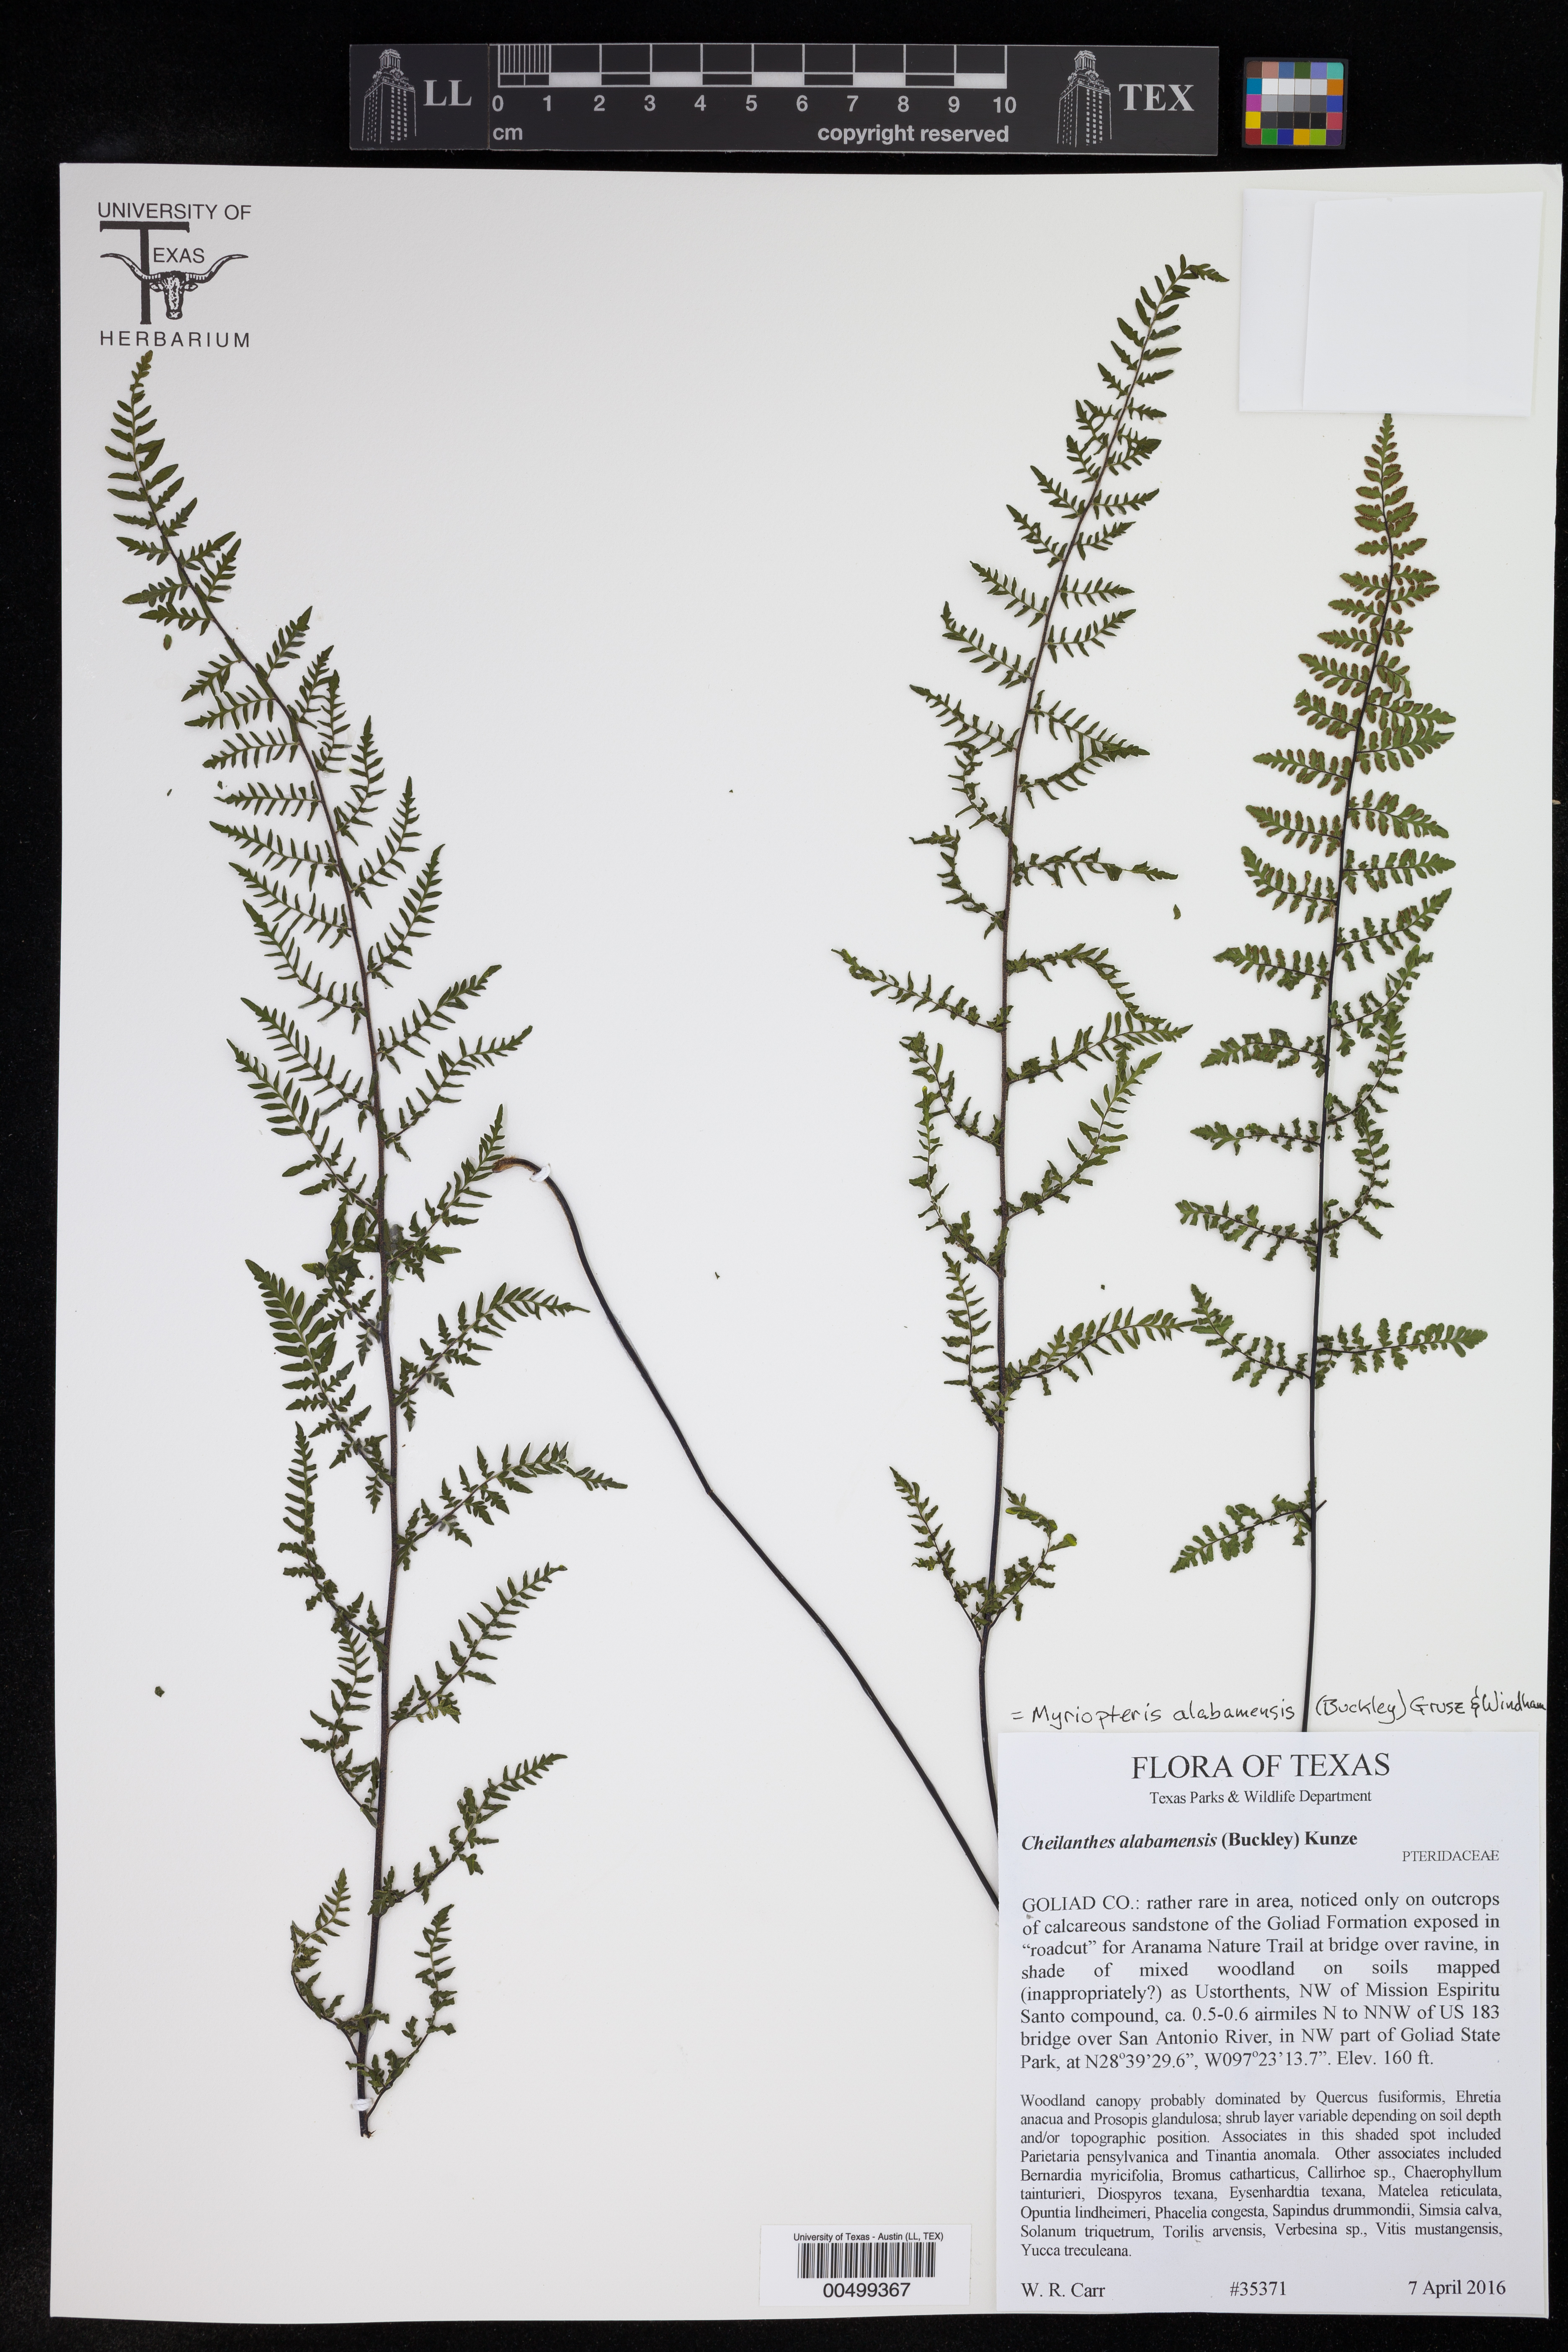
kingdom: Plantae
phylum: Tracheophyta
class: Polypodiopsida
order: Polypodiales
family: Pteridaceae
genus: Myriopteris
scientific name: Myriopteris alabamensis
